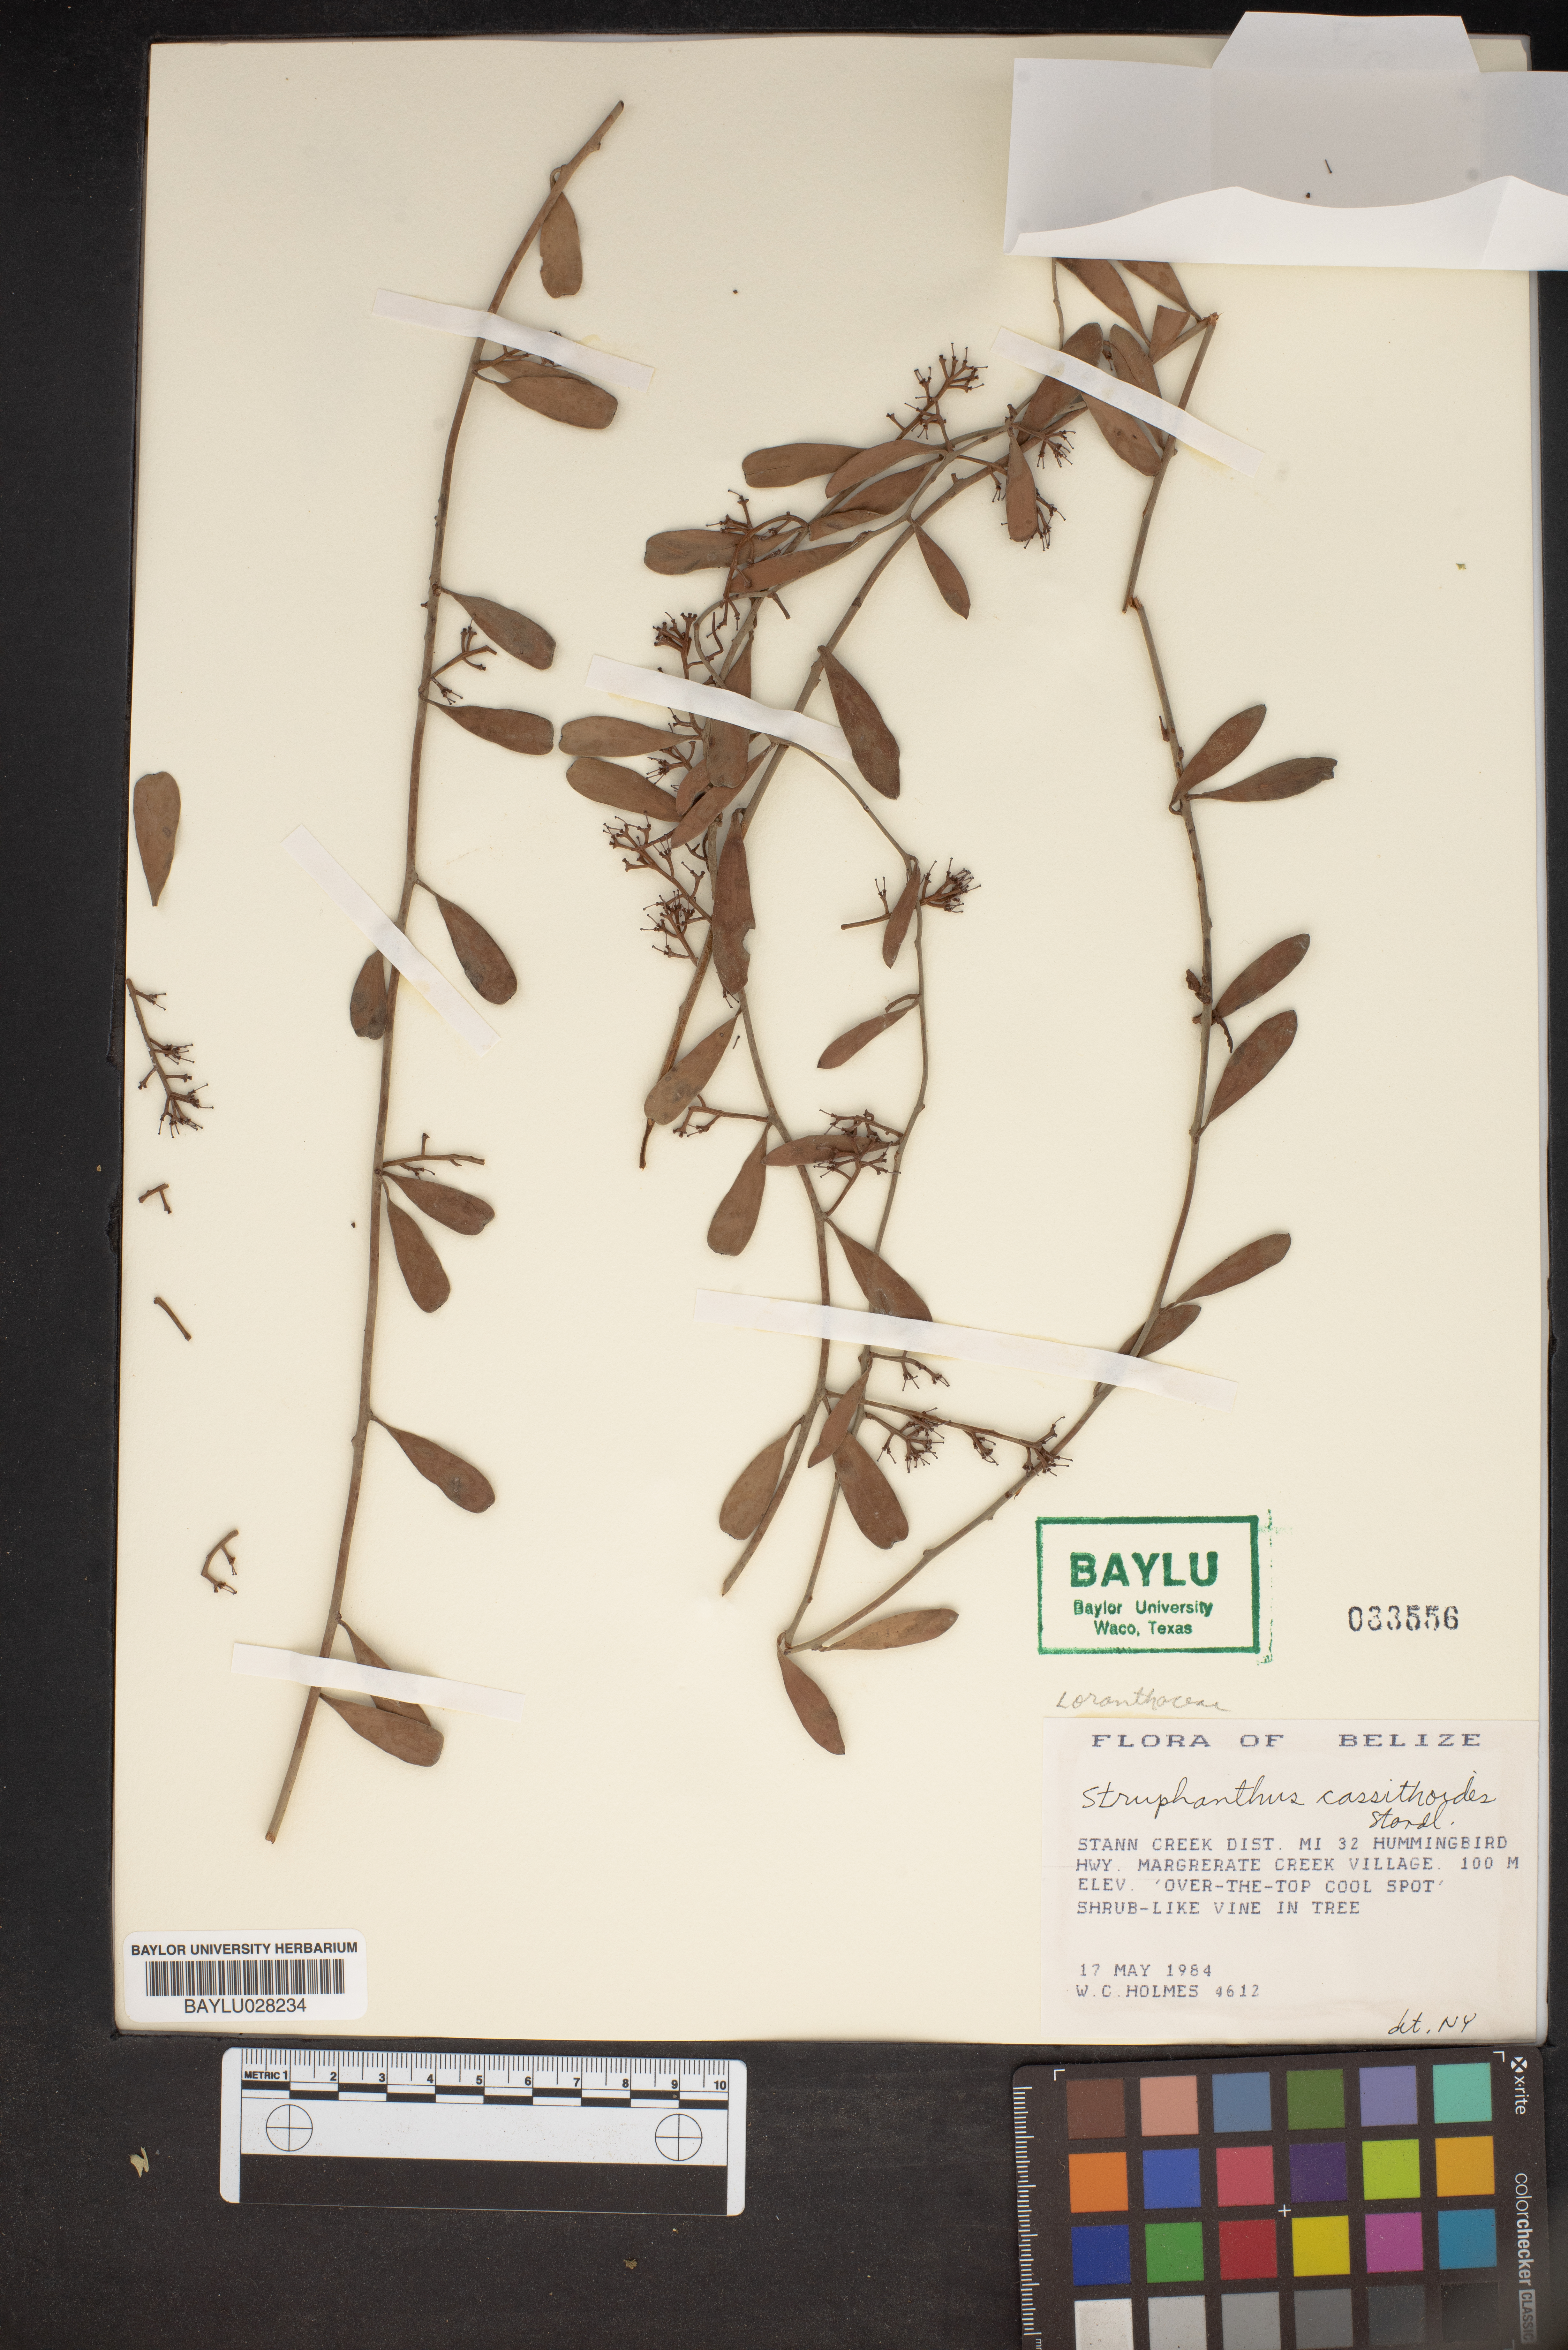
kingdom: Plantae
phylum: Tracheophyta
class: Magnoliopsida
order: Santalales
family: Loranthaceae
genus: Struthanthus
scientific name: Struthanthus cassythoides
